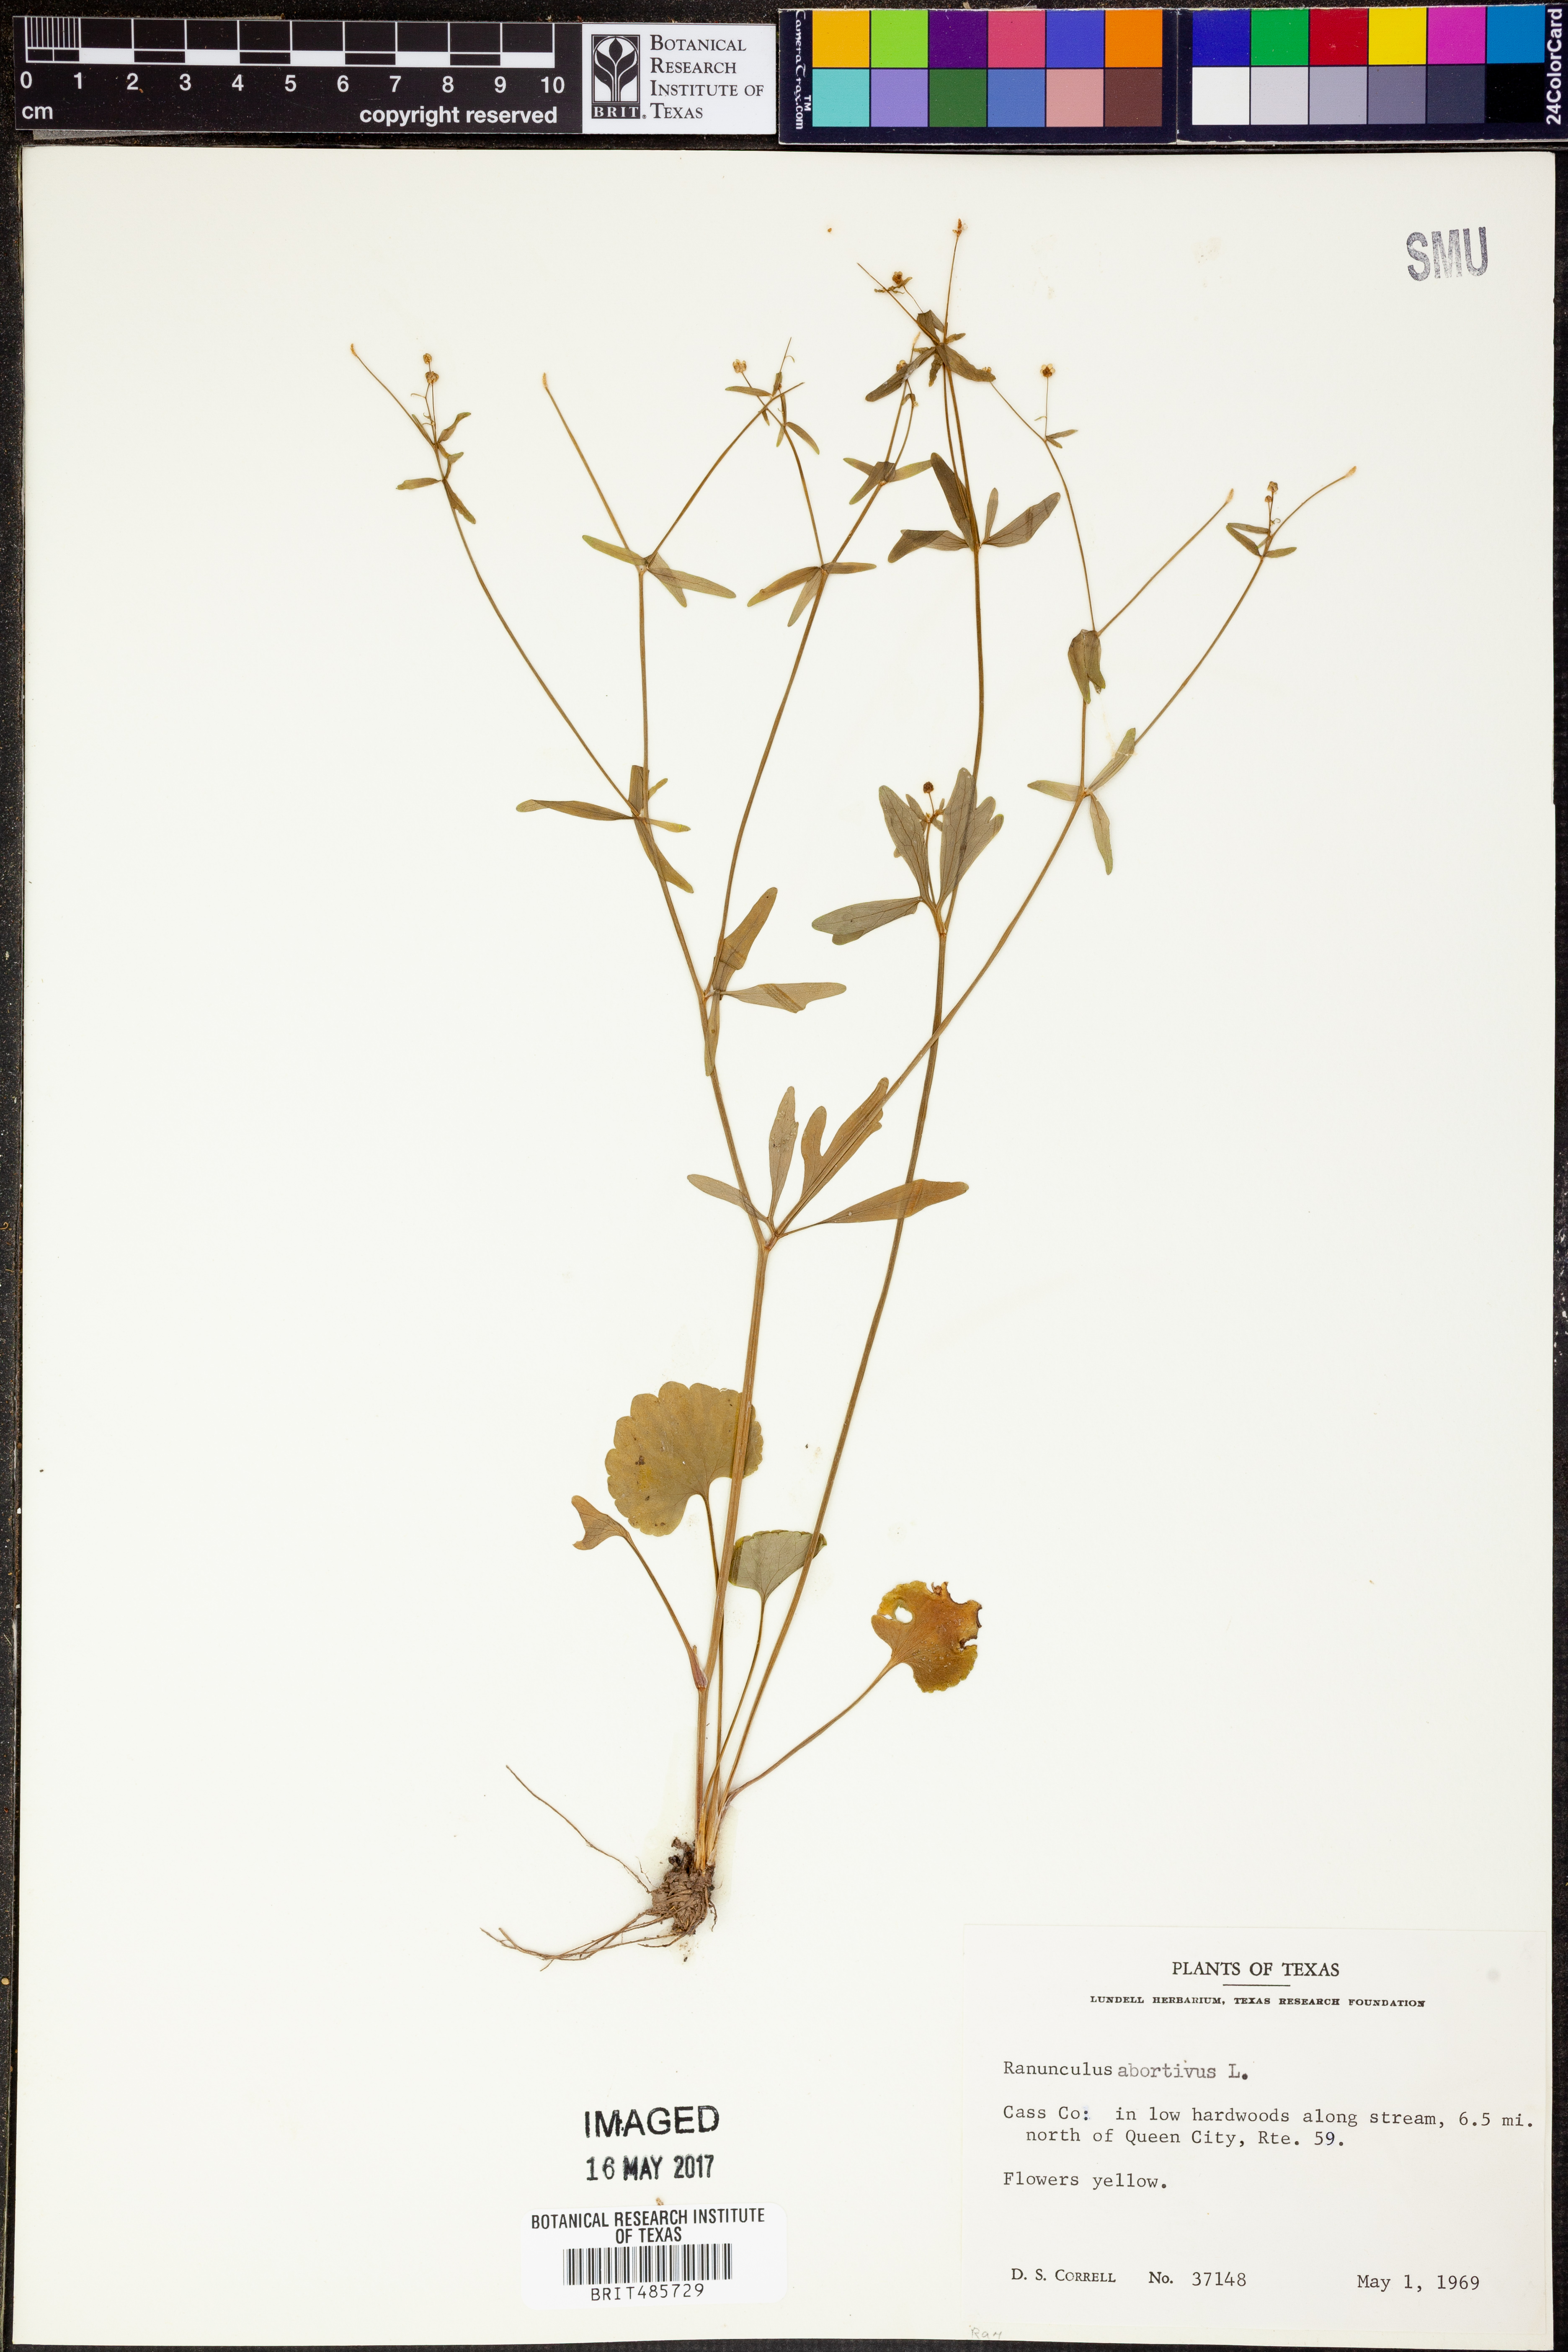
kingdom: Plantae
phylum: Tracheophyta
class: Magnoliopsida
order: Ranunculales
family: Ranunculaceae
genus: Ranunculus
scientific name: Ranunculus abortivus
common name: Early wood buttercup
